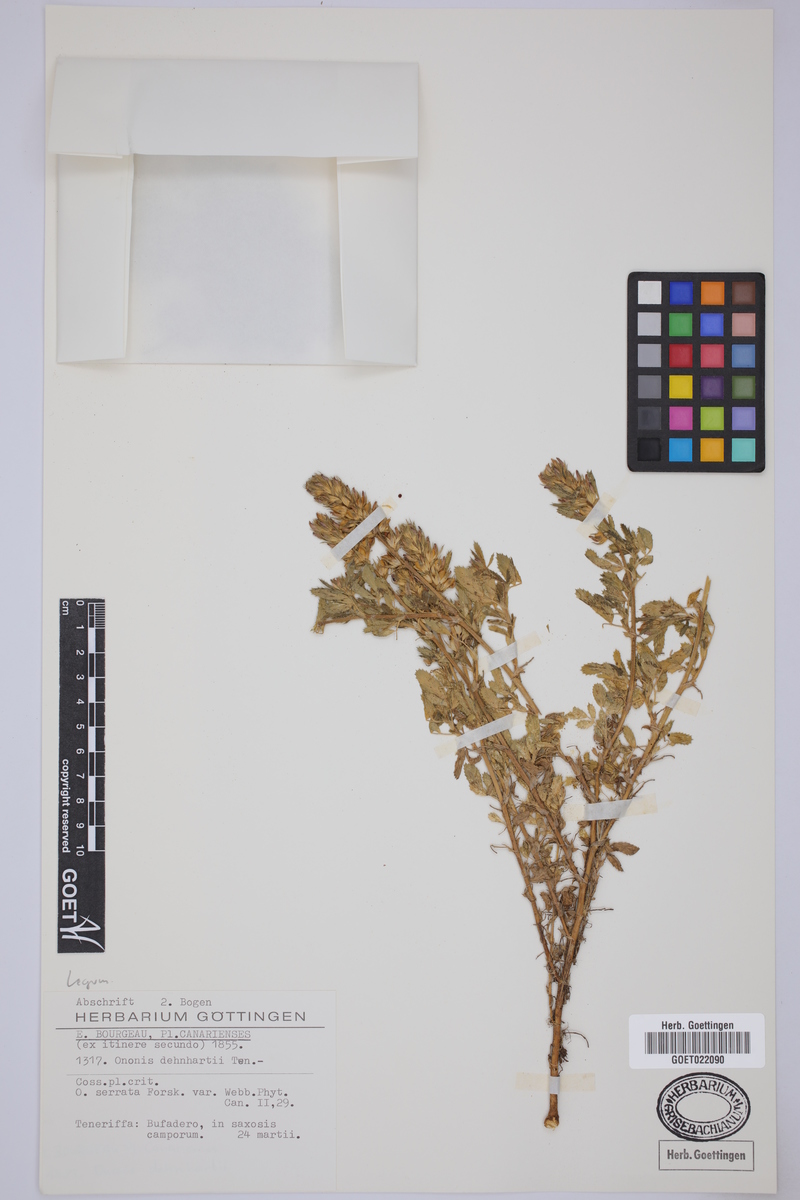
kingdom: Plantae
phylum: Tracheophyta
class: Magnoliopsida
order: Fabales
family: Fabaceae
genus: Ononis
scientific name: Ononis serrata
